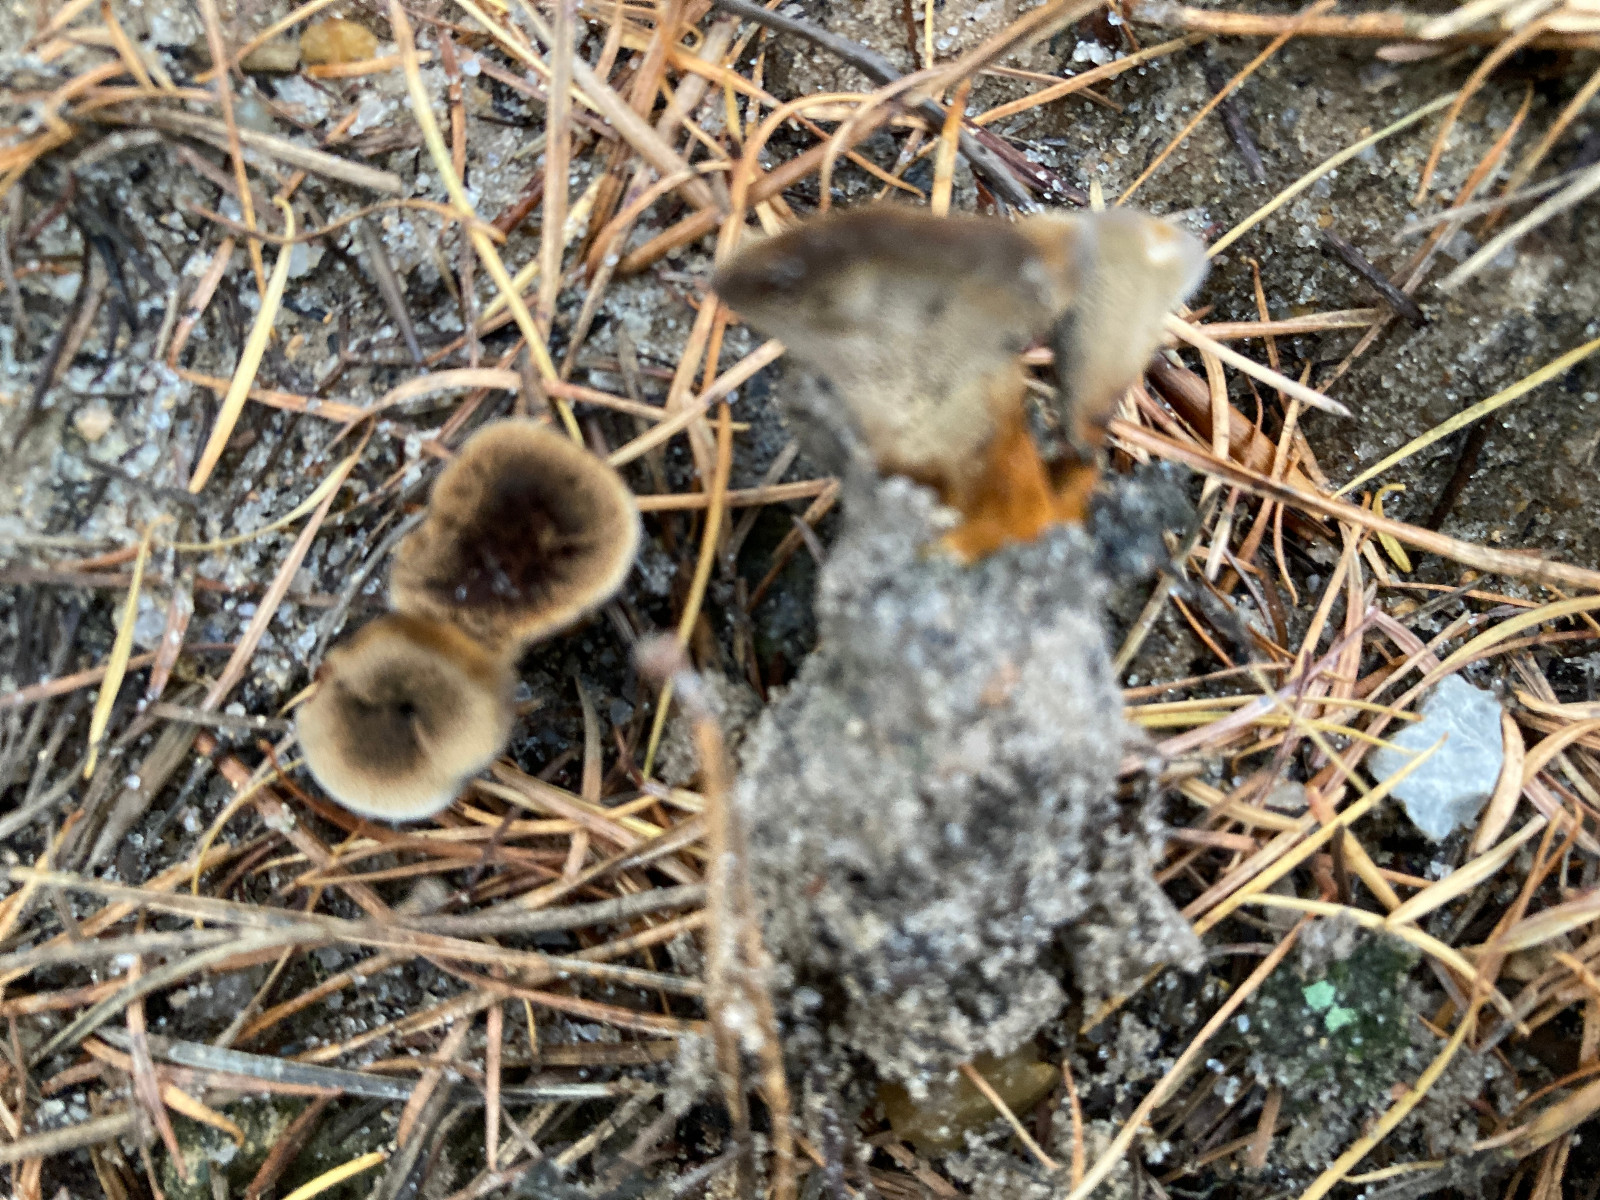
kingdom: Fungi
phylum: Basidiomycota
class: Agaricomycetes
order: Hymenochaetales
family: Hymenochaetaceae
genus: Coltricia
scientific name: Coltricia
